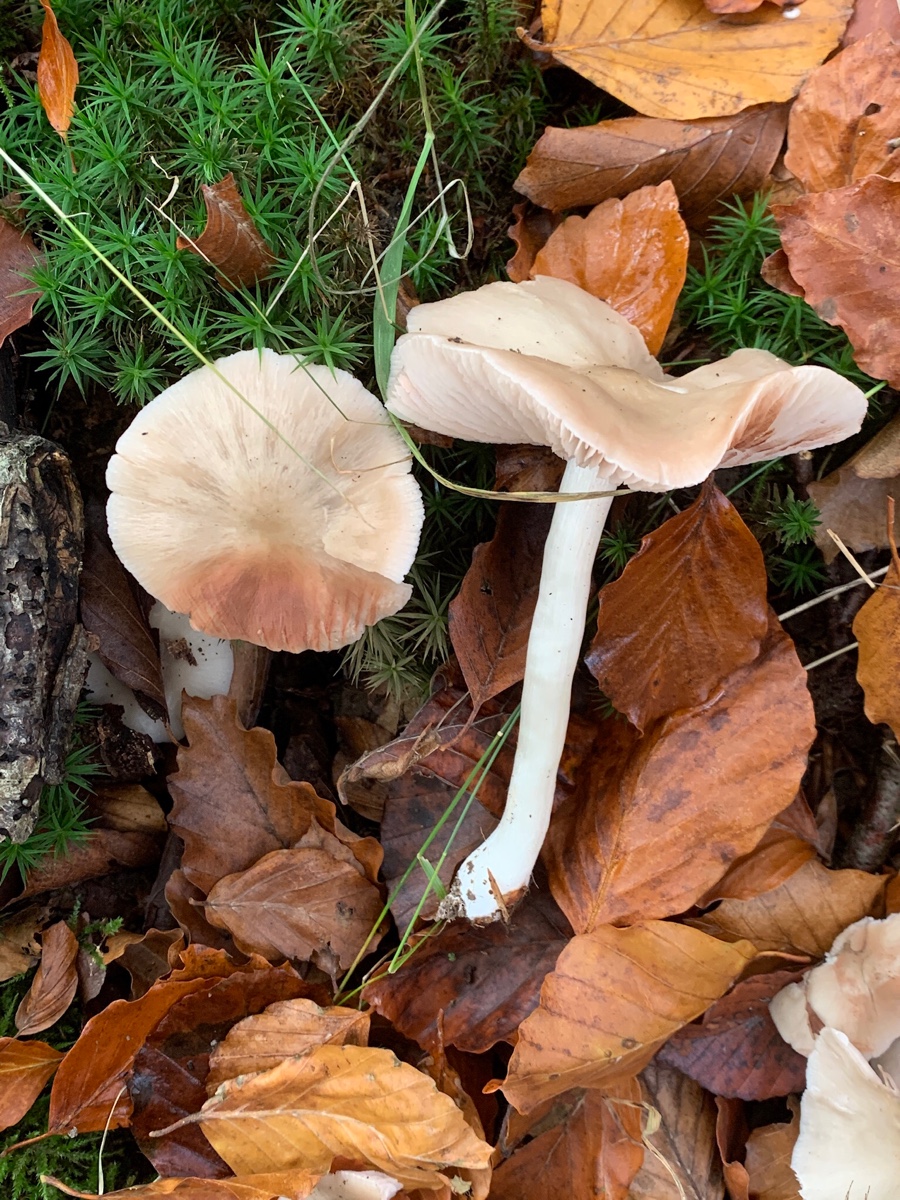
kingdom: Fungi
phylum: Basidiomycota
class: Agaricomycetes
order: Agaricales
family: Entolomataceae
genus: Entoloma
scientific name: Entoloma rhodopolium
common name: skov-rødblad
